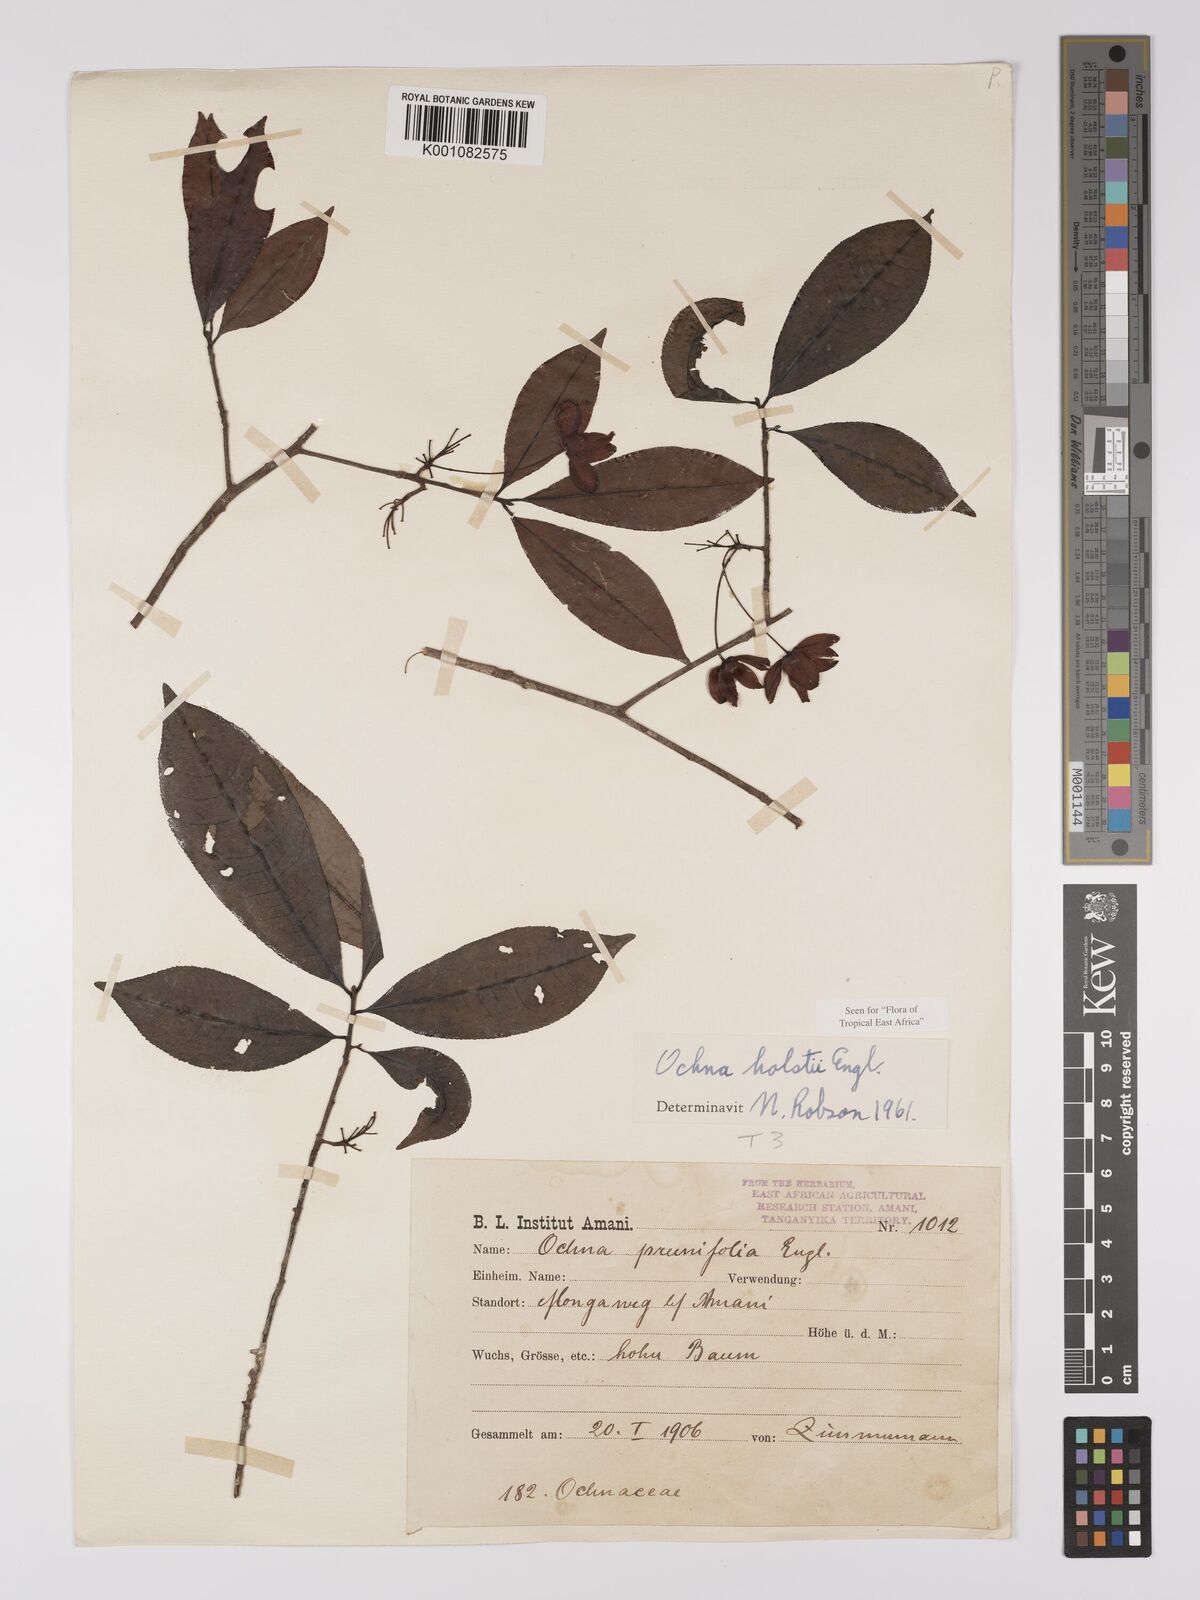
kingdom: Plantae
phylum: Tracheophyta
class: Magnoliopsida
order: Malpighiales
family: Ochnaceae
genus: Ochna
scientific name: Ochna holstii
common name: Red ironwood
